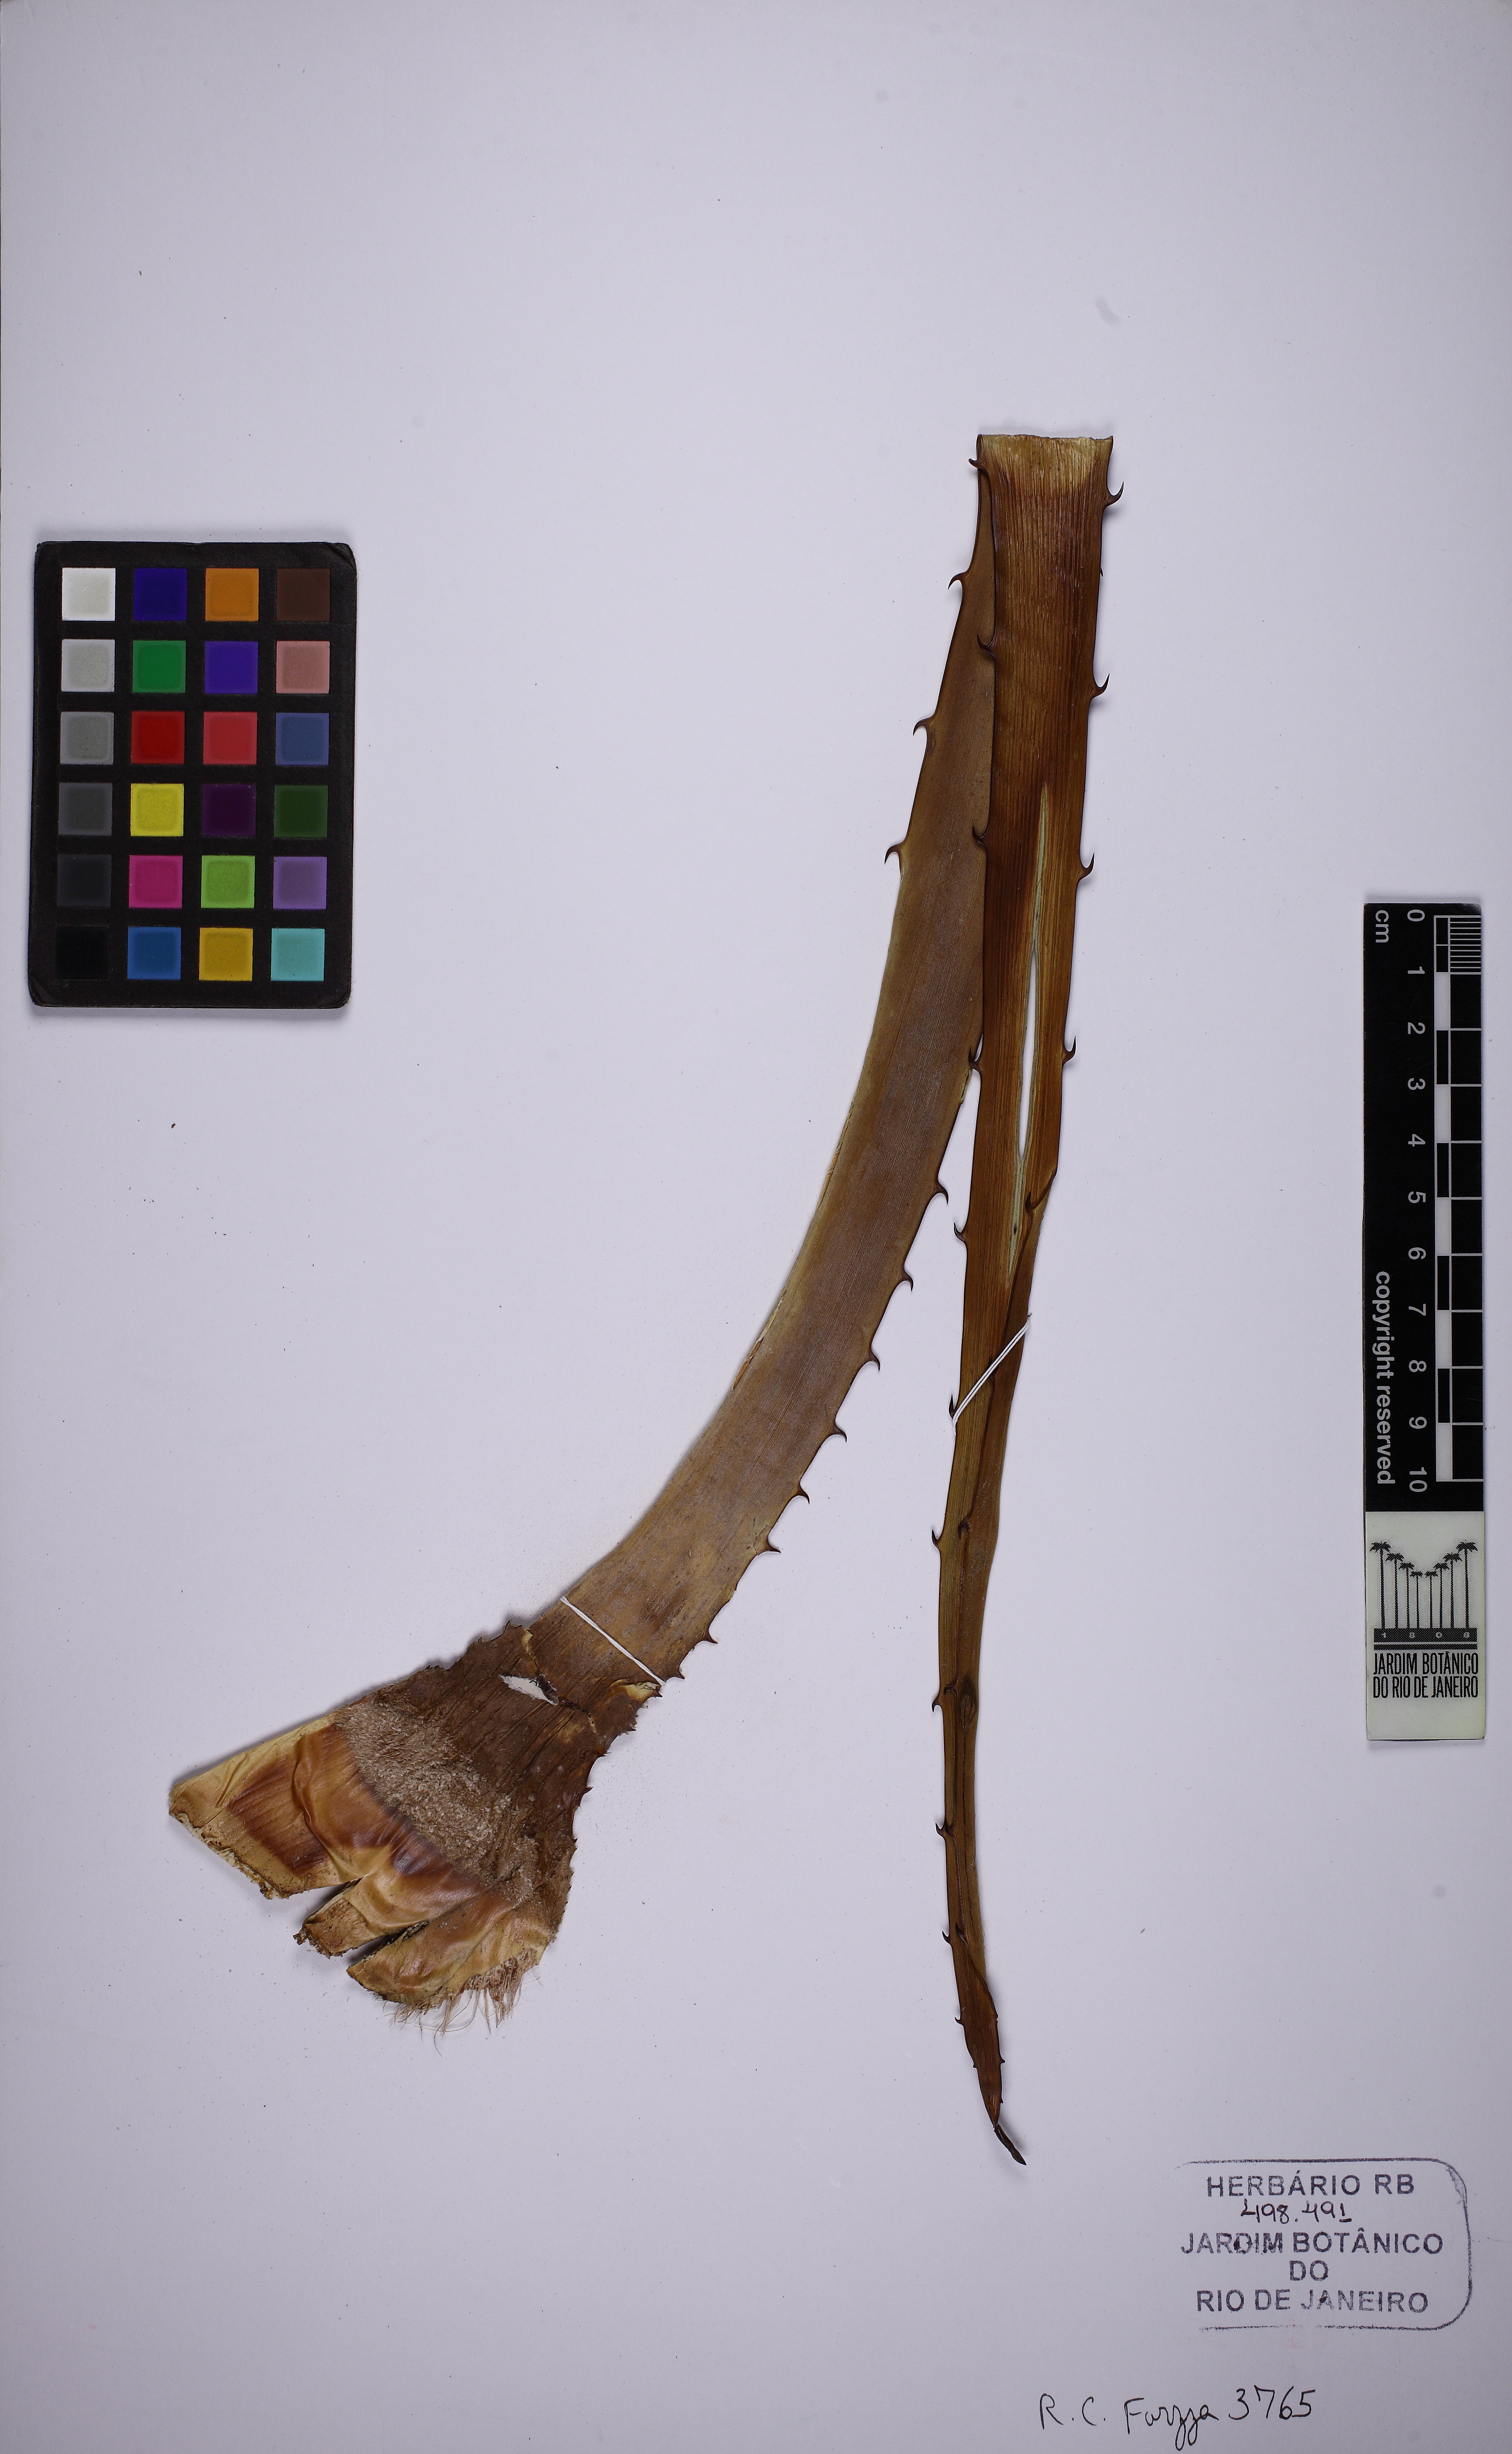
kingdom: Plantae
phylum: Tracheophyta
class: Liliopsida
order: Poales
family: Bromeliaceae
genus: Bromelia
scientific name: Bromelia serra
